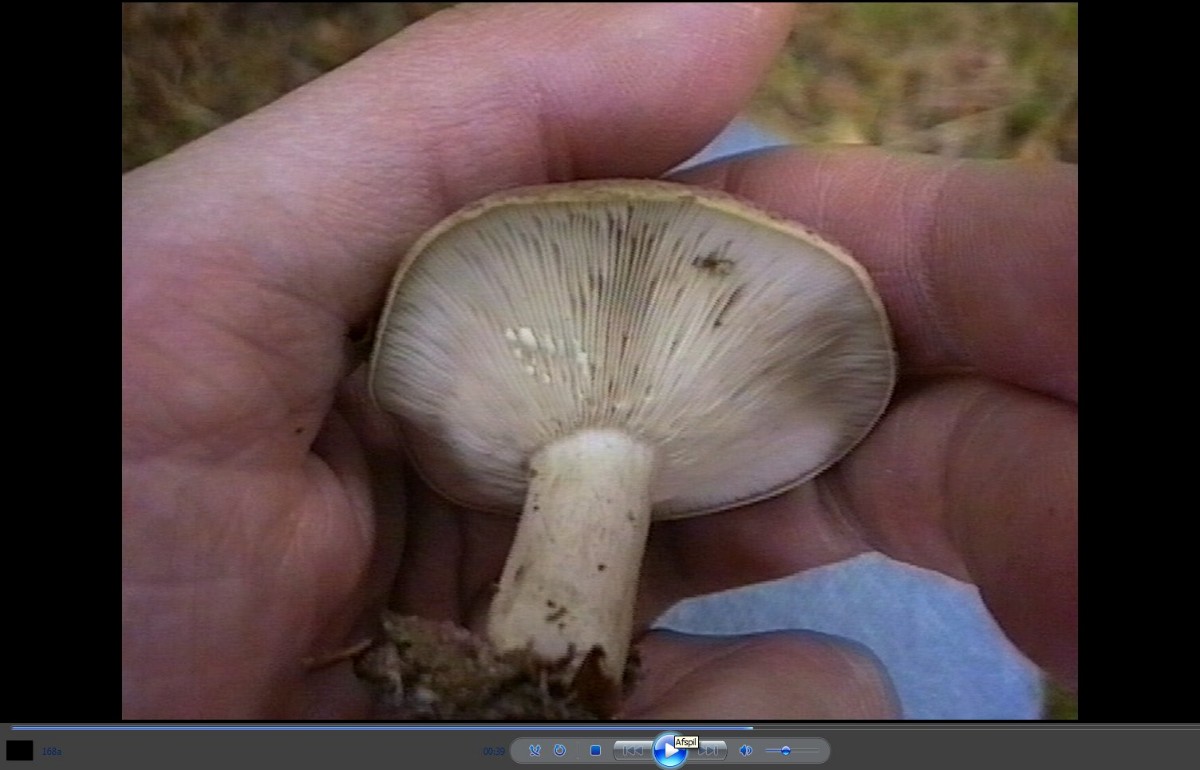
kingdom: Fungi
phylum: Basidiomycota
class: Agaricomycetes
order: Russulales
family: Russulaceae
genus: Lactarius
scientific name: Lactarius blennius
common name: dråbeplettet mælkehat
